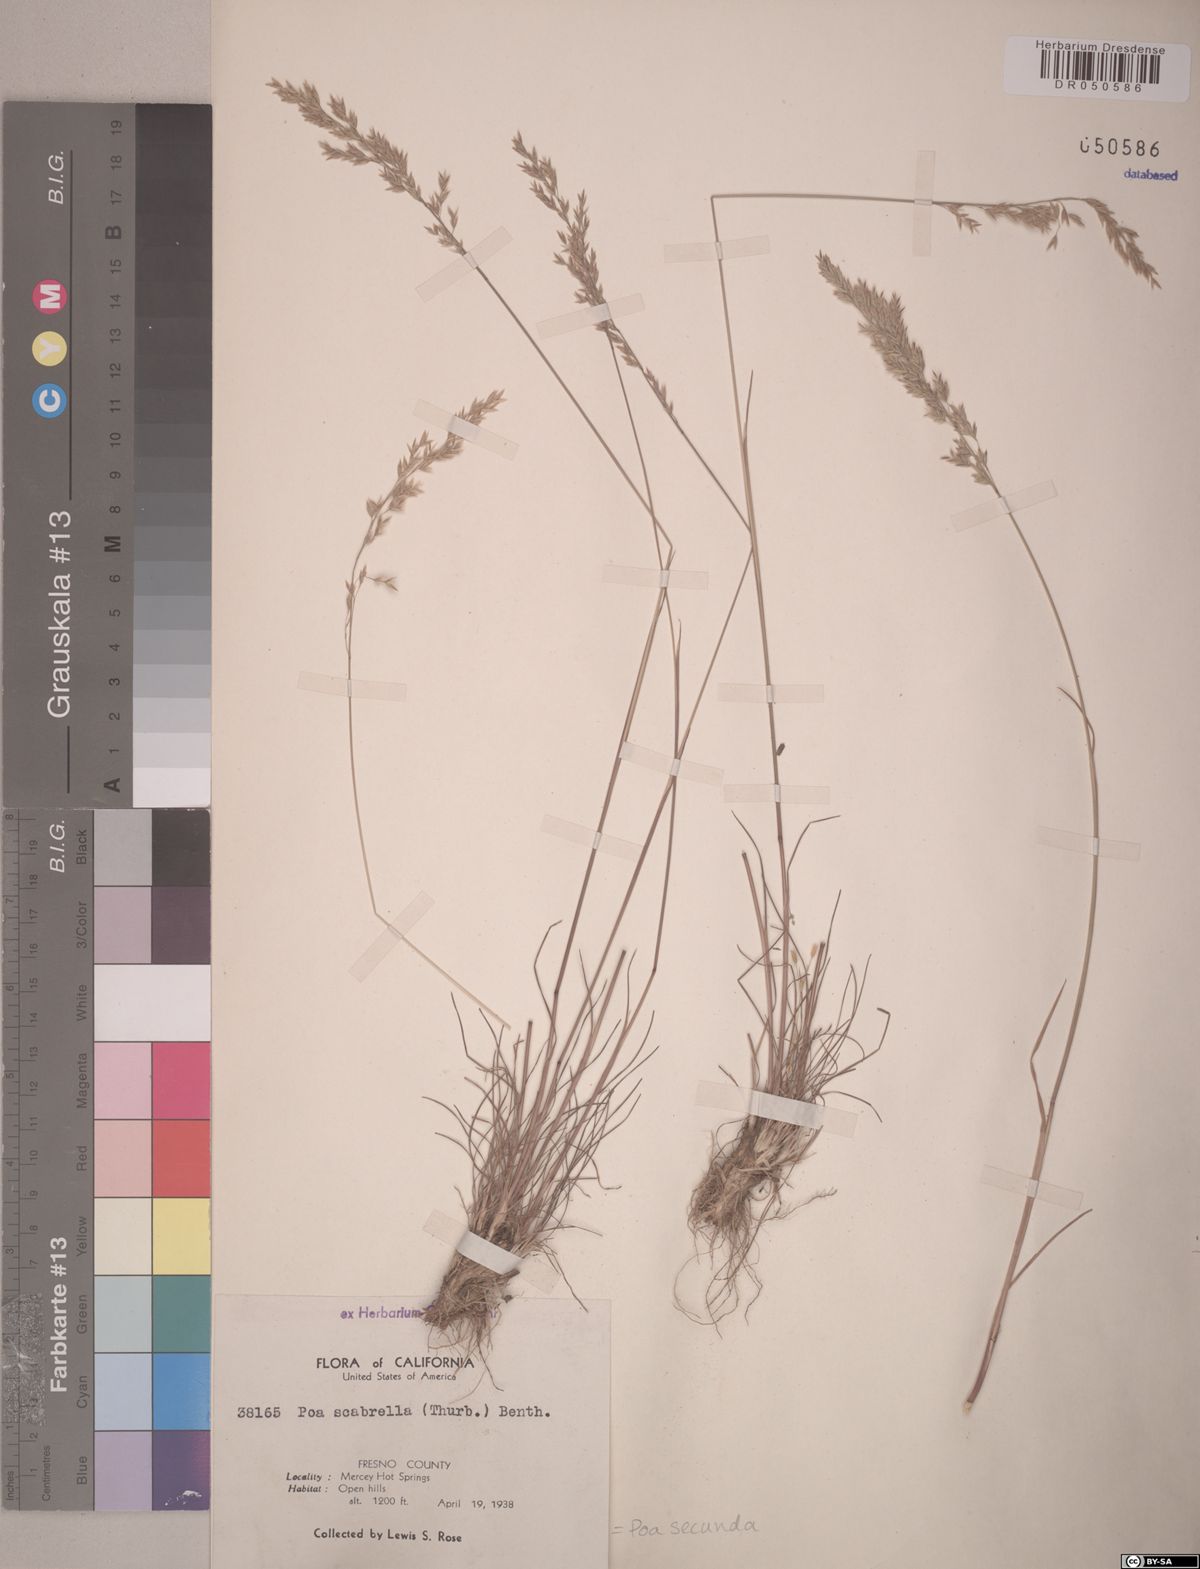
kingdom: Plantae
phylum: Tracheophyta
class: Liliopsida
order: Poales
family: Poaceae
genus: Poa
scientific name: Poa secunda
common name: Sandberg bluegrass
